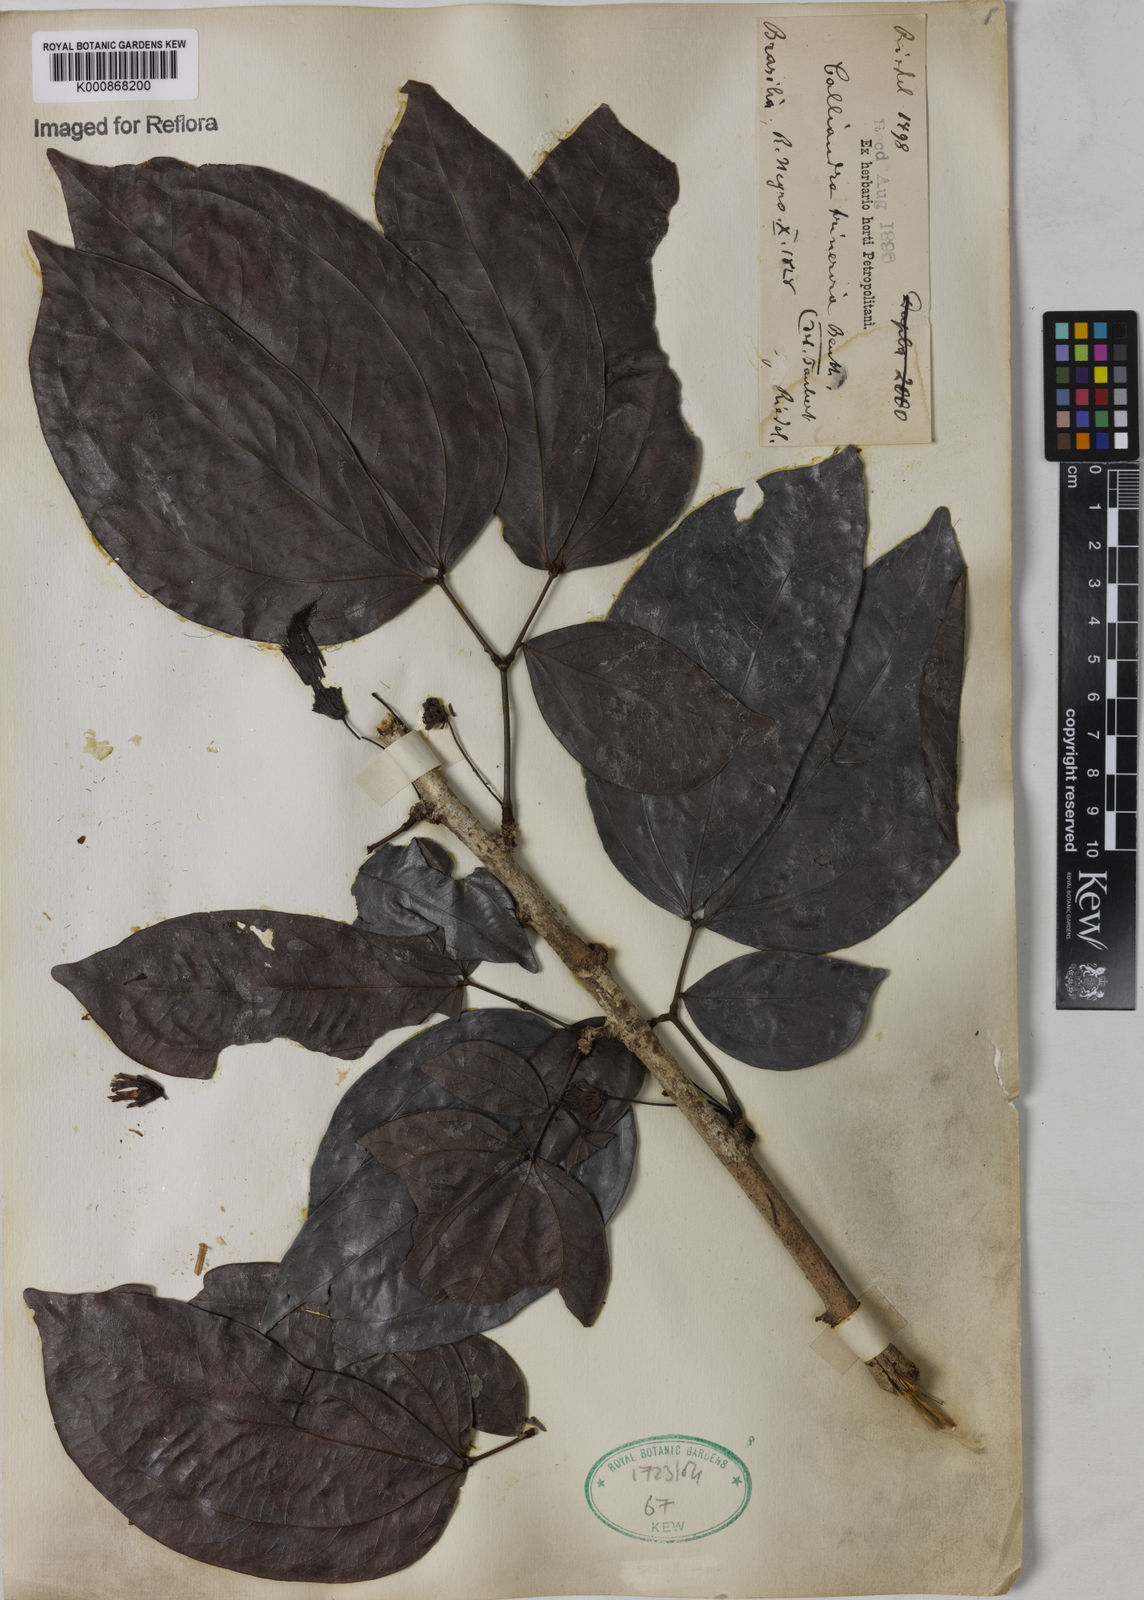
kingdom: Plantae
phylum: Tracheophyta
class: Magnoliopsida
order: Fabales
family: Fabaceae
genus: Calliandra
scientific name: Calliandra trinervia
